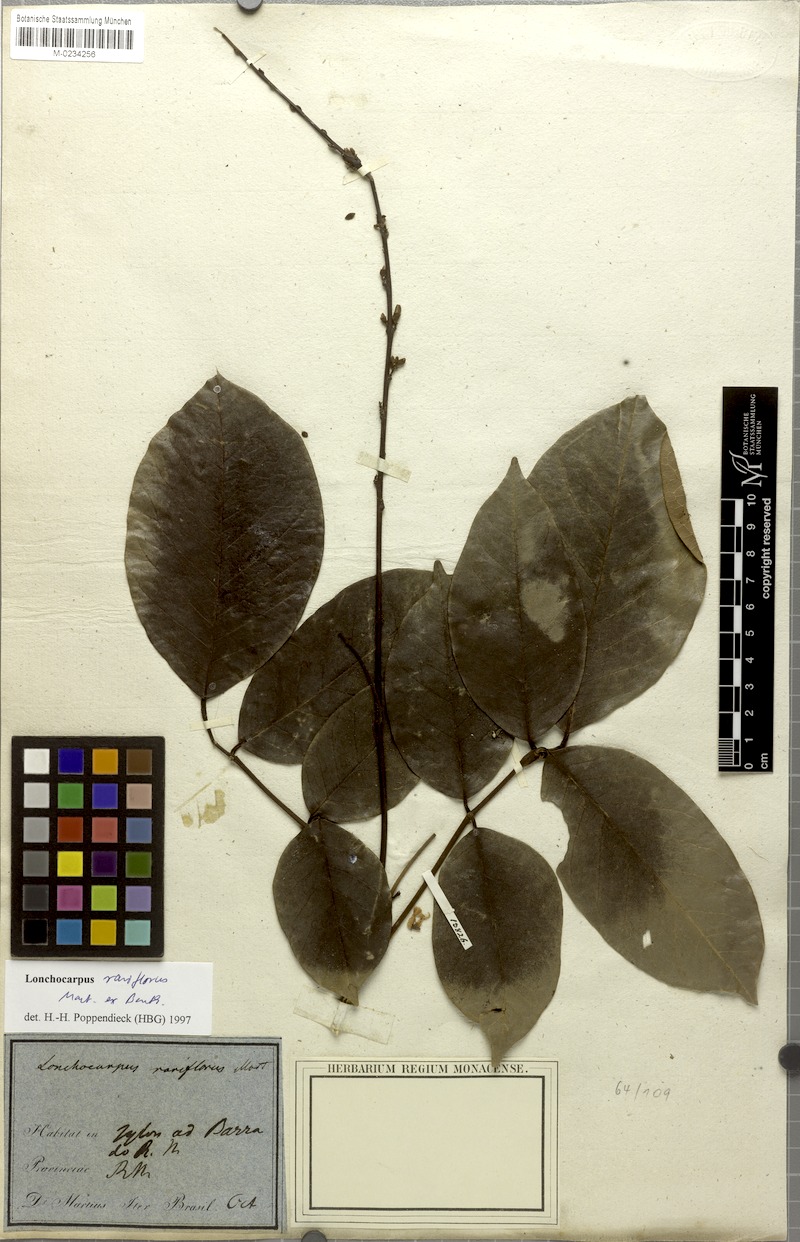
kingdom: Plantae
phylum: Tracheophyta
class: Magnoliopsida
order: Fabales
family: Fabaceae
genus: Deguelia
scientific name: Deguelia rariflora
